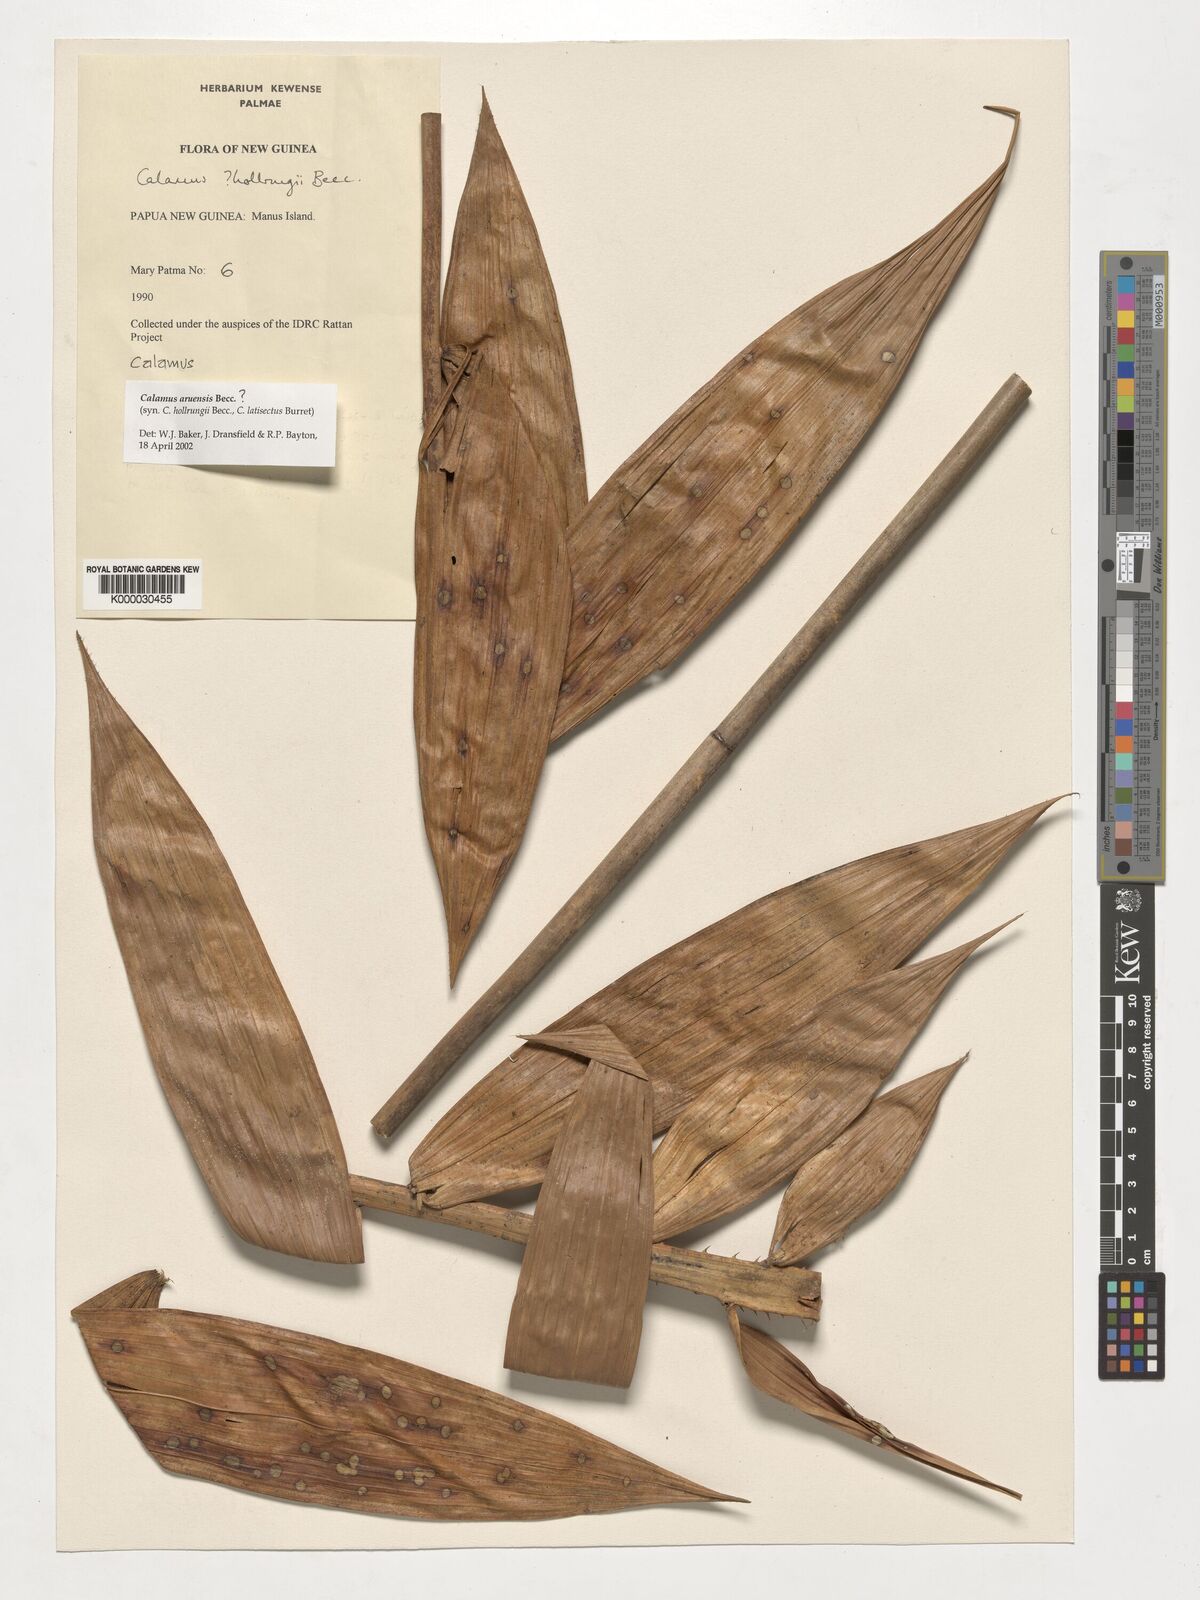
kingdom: Plantae
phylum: Tracheophyta
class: Liliopsida
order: Arecales
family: Arecaceae
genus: Calamus
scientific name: Calamus aruensis
